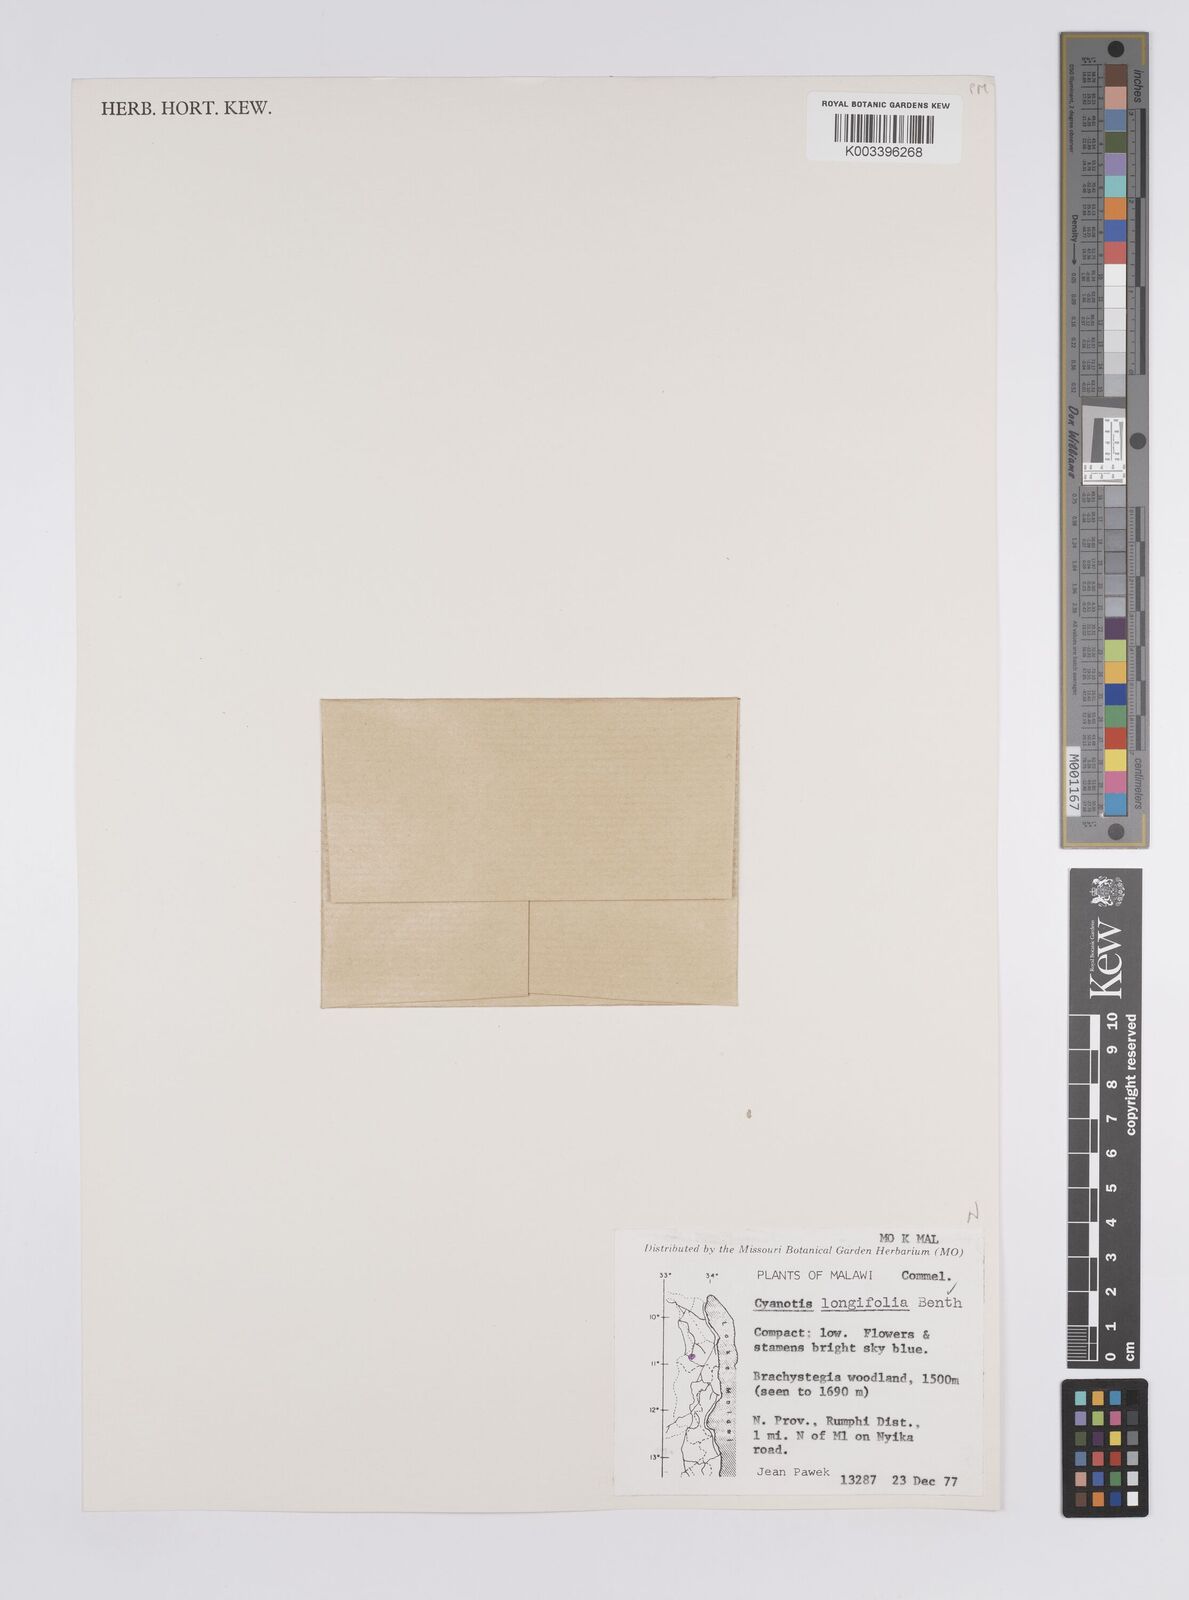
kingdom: Plantae
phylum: Tracheophyta
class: Liliopsida
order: Commelinales
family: Commelinaceae
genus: Cyanotis
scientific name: Cyanotis longifolia
